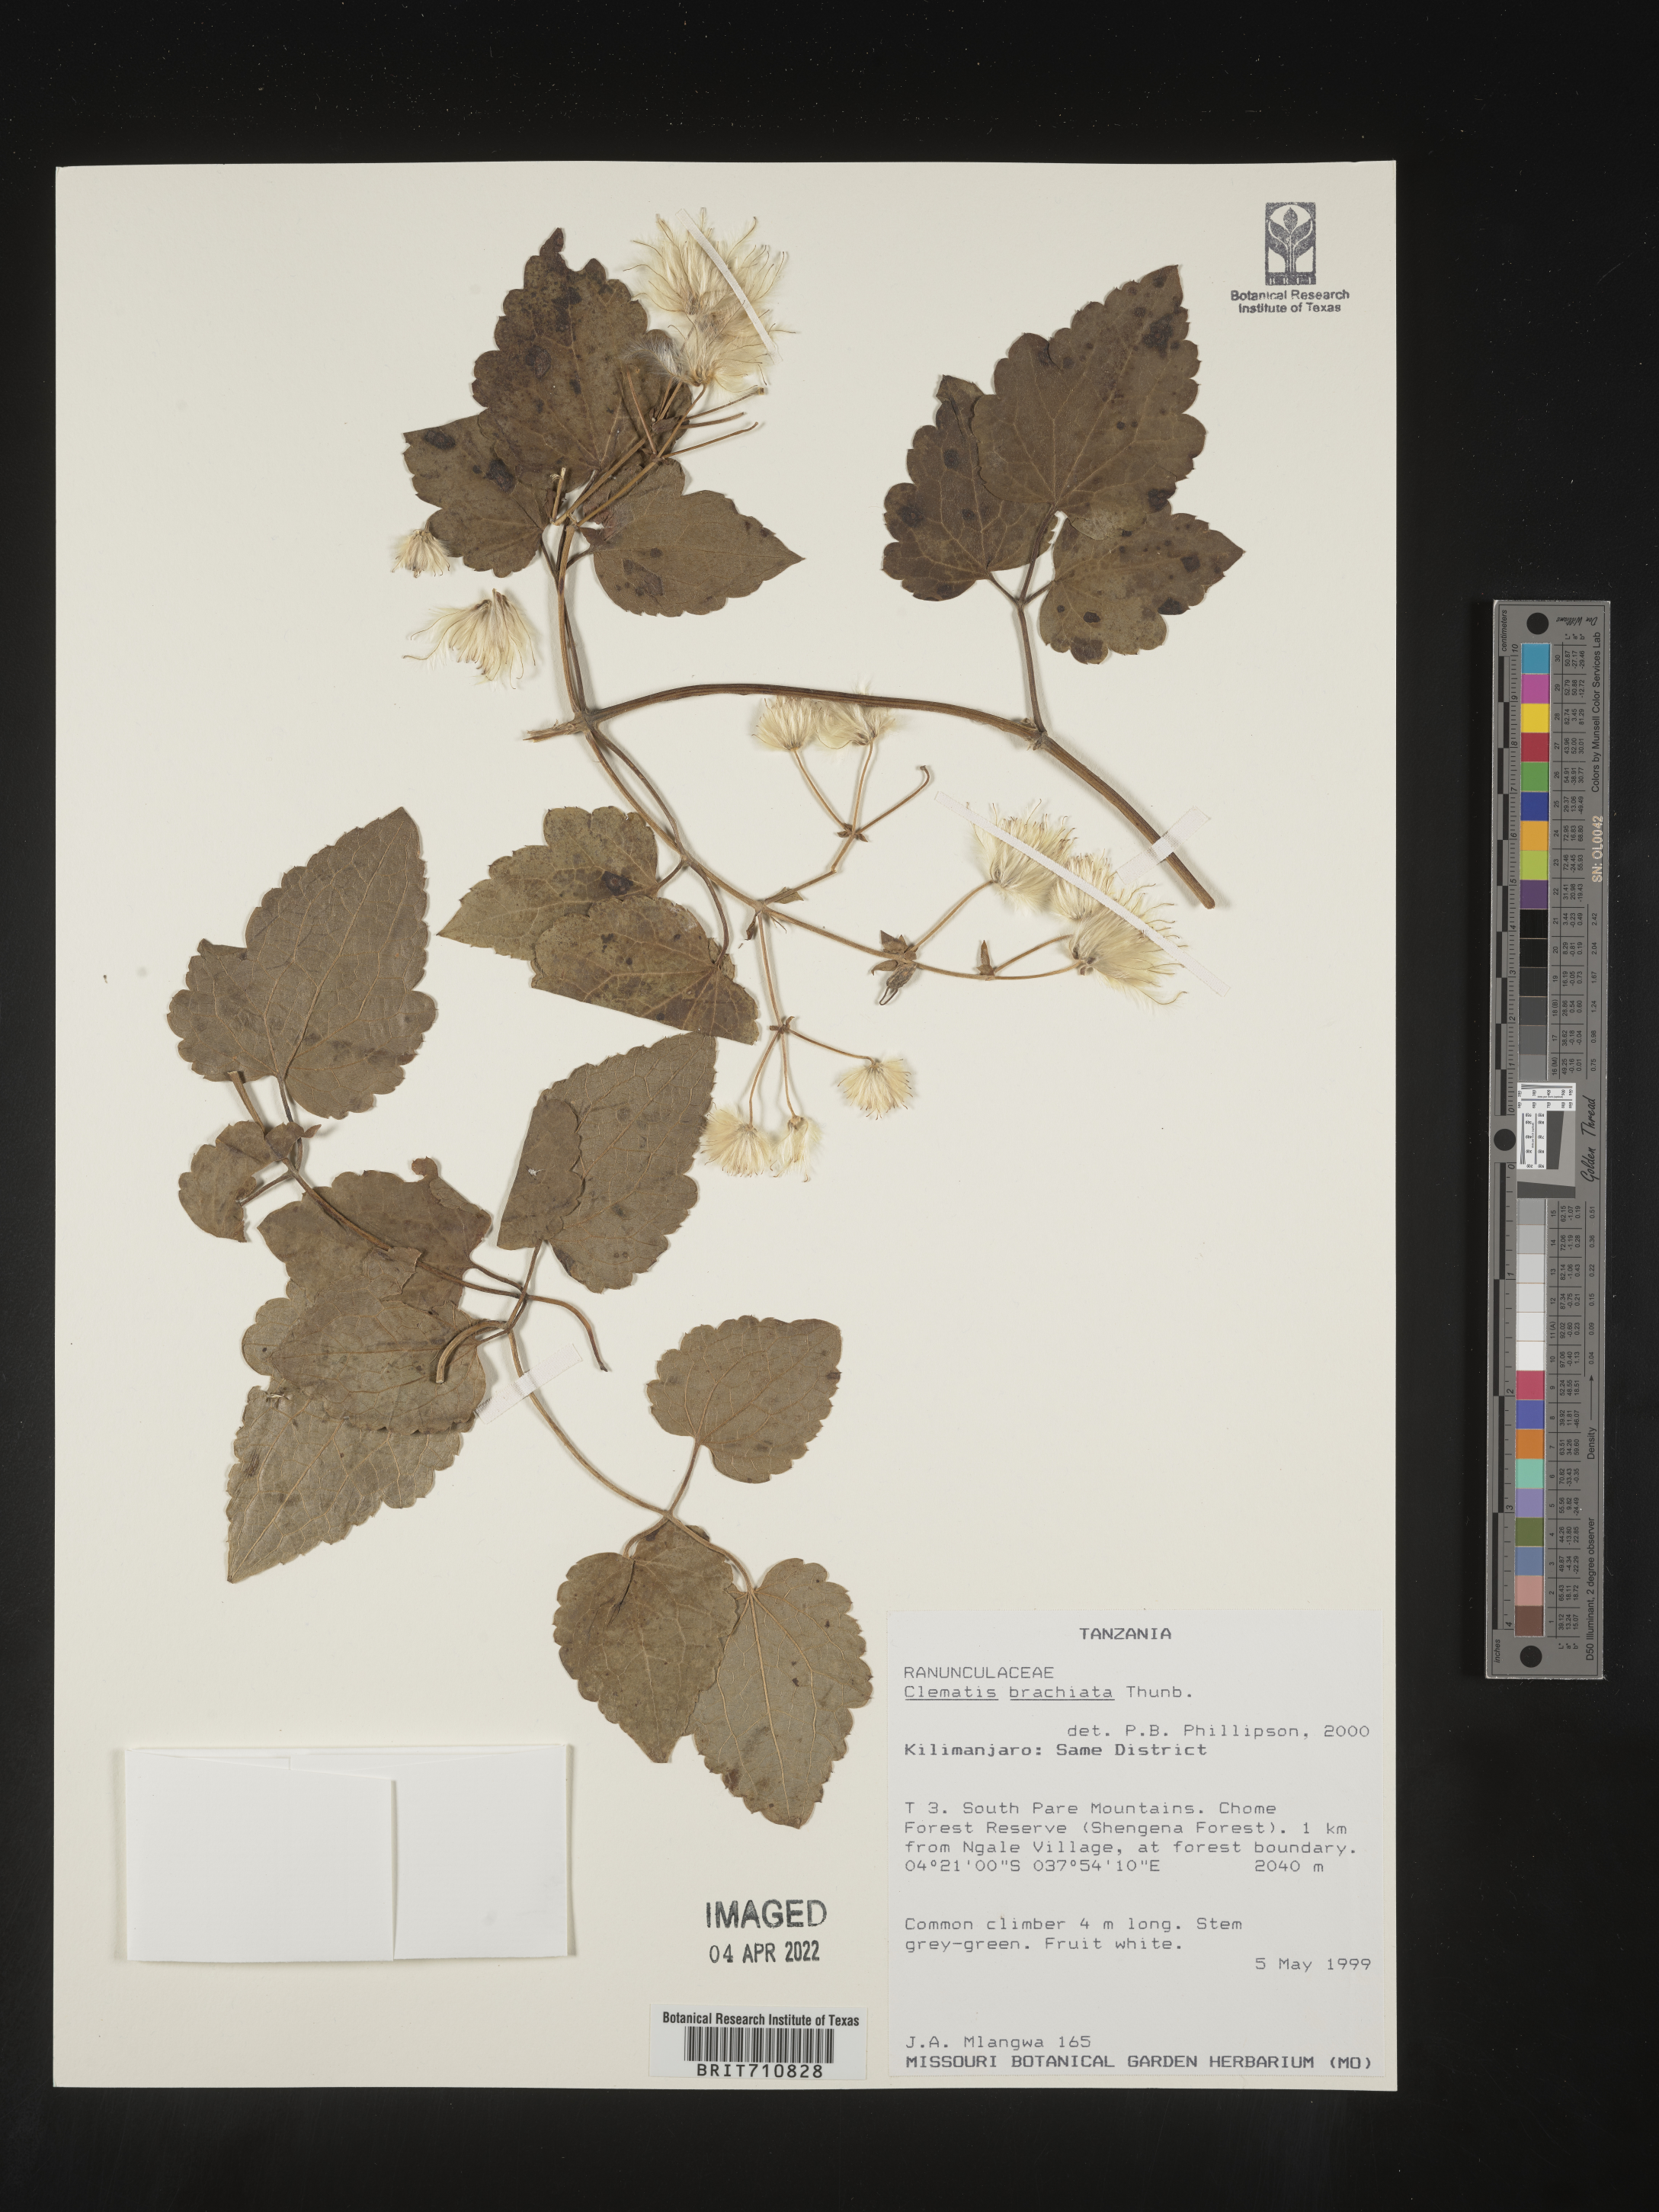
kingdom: Plantae
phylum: Tracheophyta
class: Magnoliopsida
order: Ranunculales
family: Ranunculaceae
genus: Clematis
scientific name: Clematis
